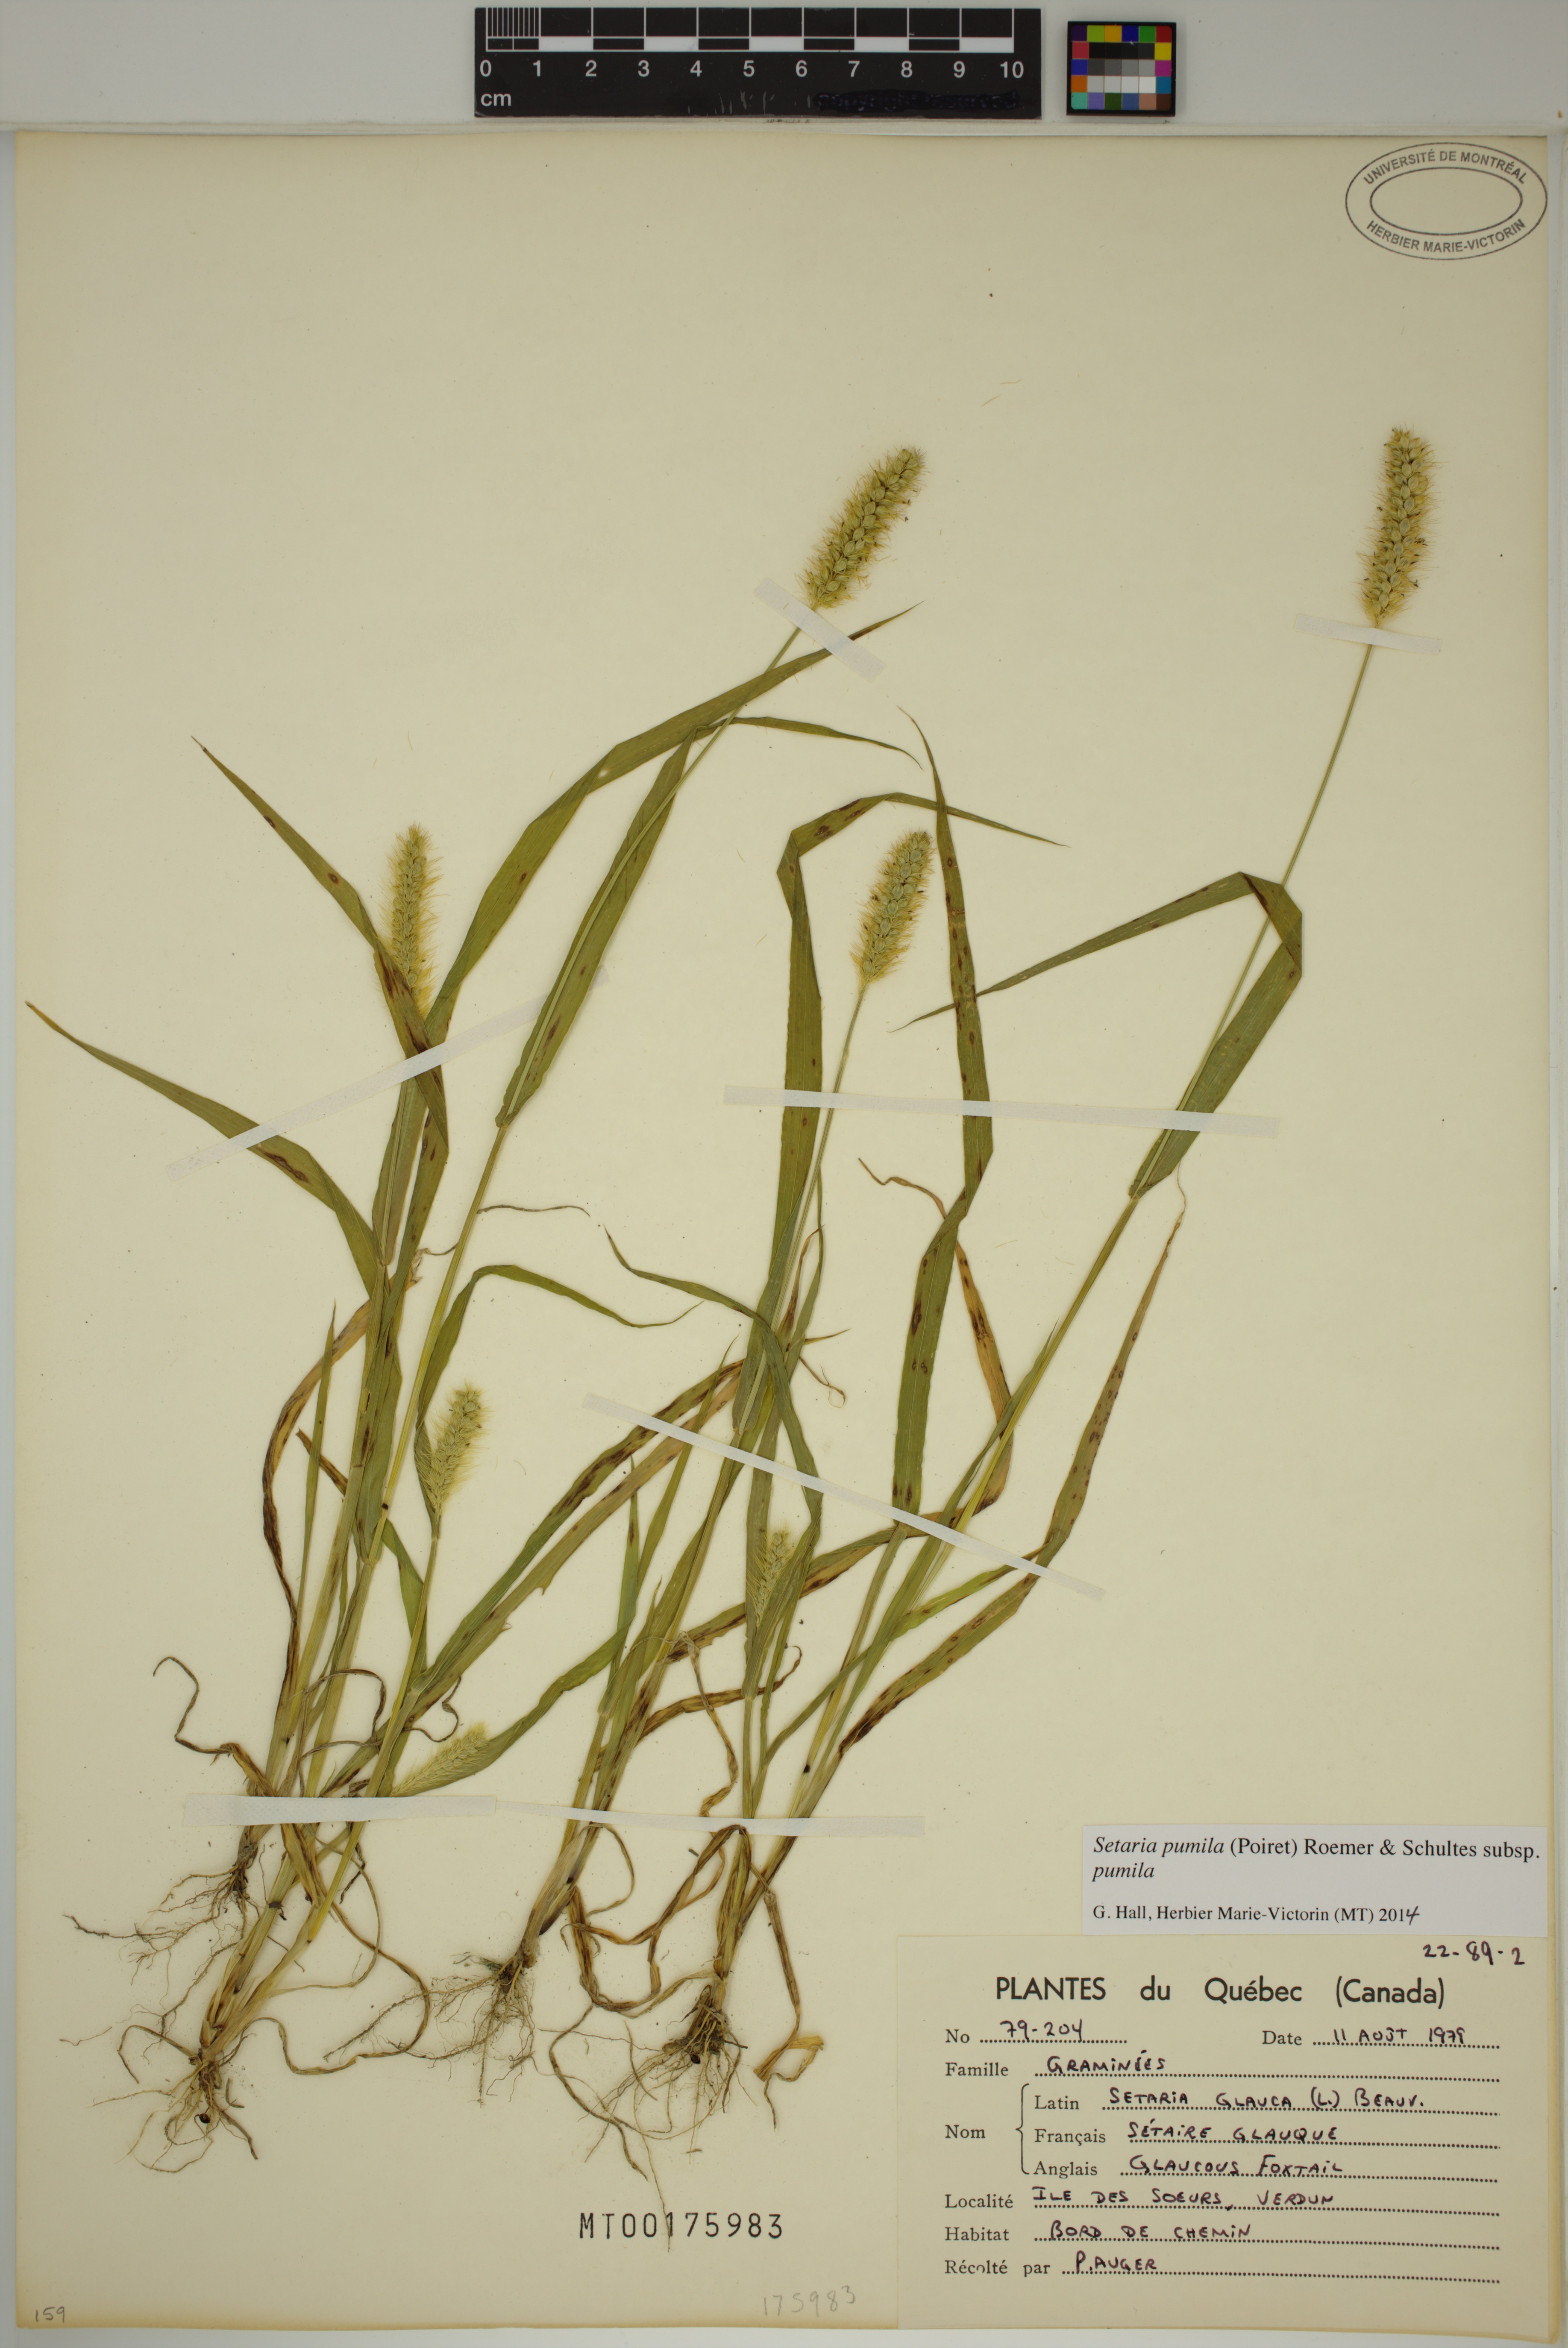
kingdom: Plantae
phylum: Tracheophyta
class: Liliopsida
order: Poales
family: Poaceae
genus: Setaria
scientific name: Setaria pumila
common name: Yellow bristle-grass
